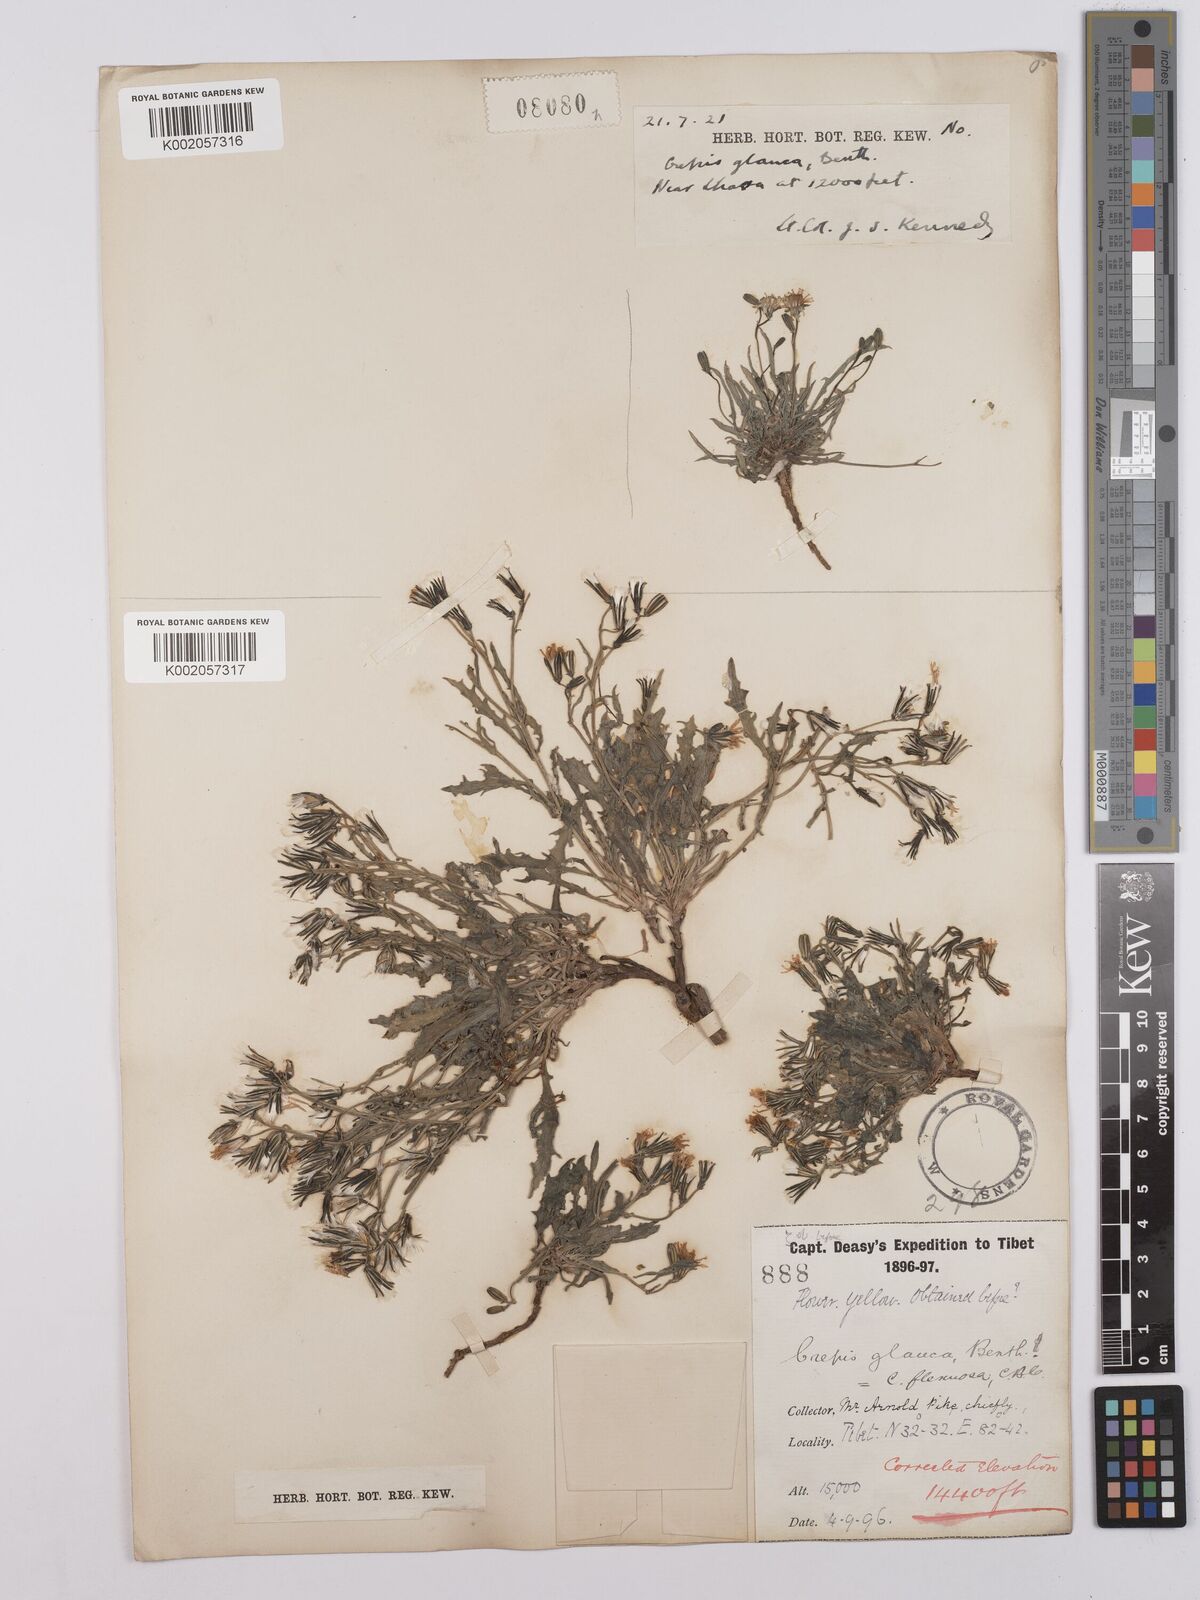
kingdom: Plantae
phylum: Tracheophyta
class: Magnoliopsida
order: Asterales
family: Asteraceae
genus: Askellia
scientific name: Askellia flexuosa
